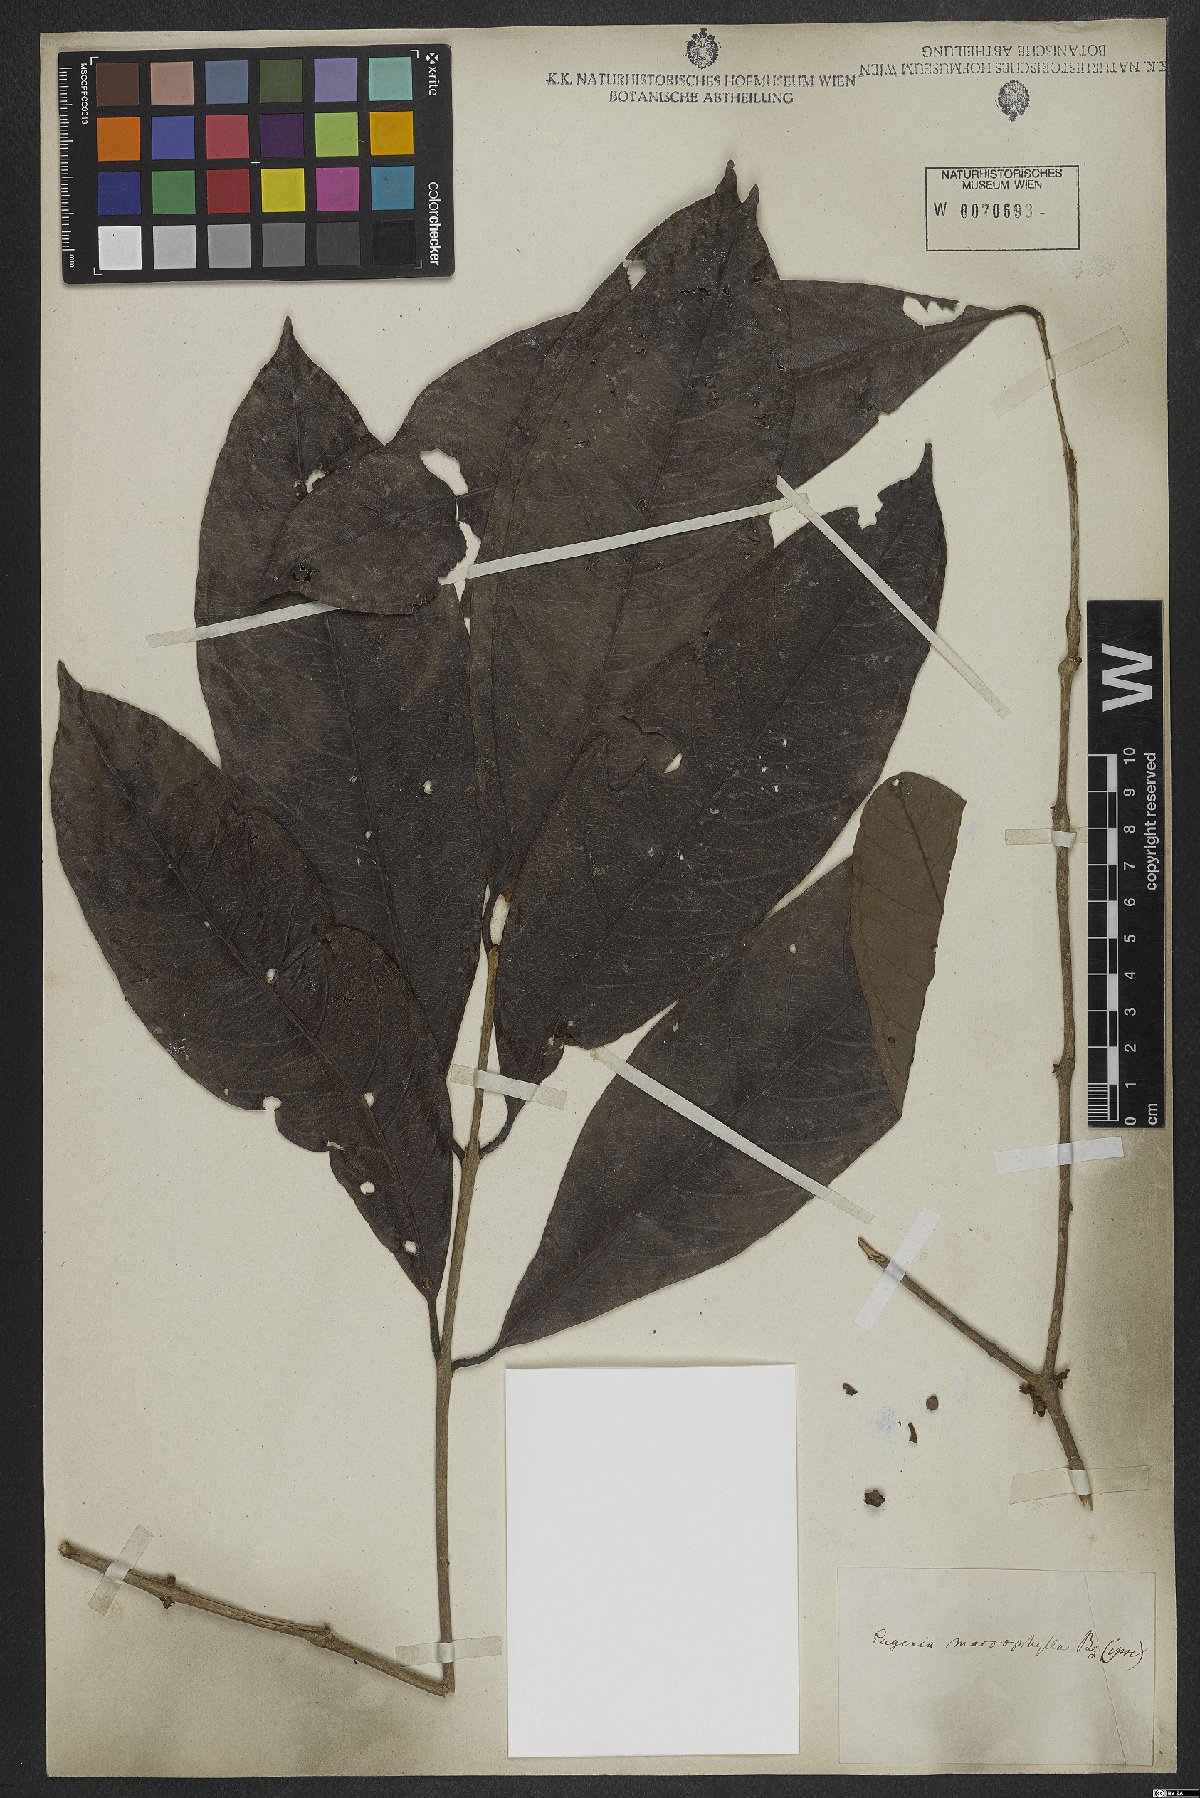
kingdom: Plantae
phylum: Tracheophyta
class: Magnoliopsida
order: Myrtales
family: Myrtaceae
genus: Eugenia
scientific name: Eugenia glomeruliflora
